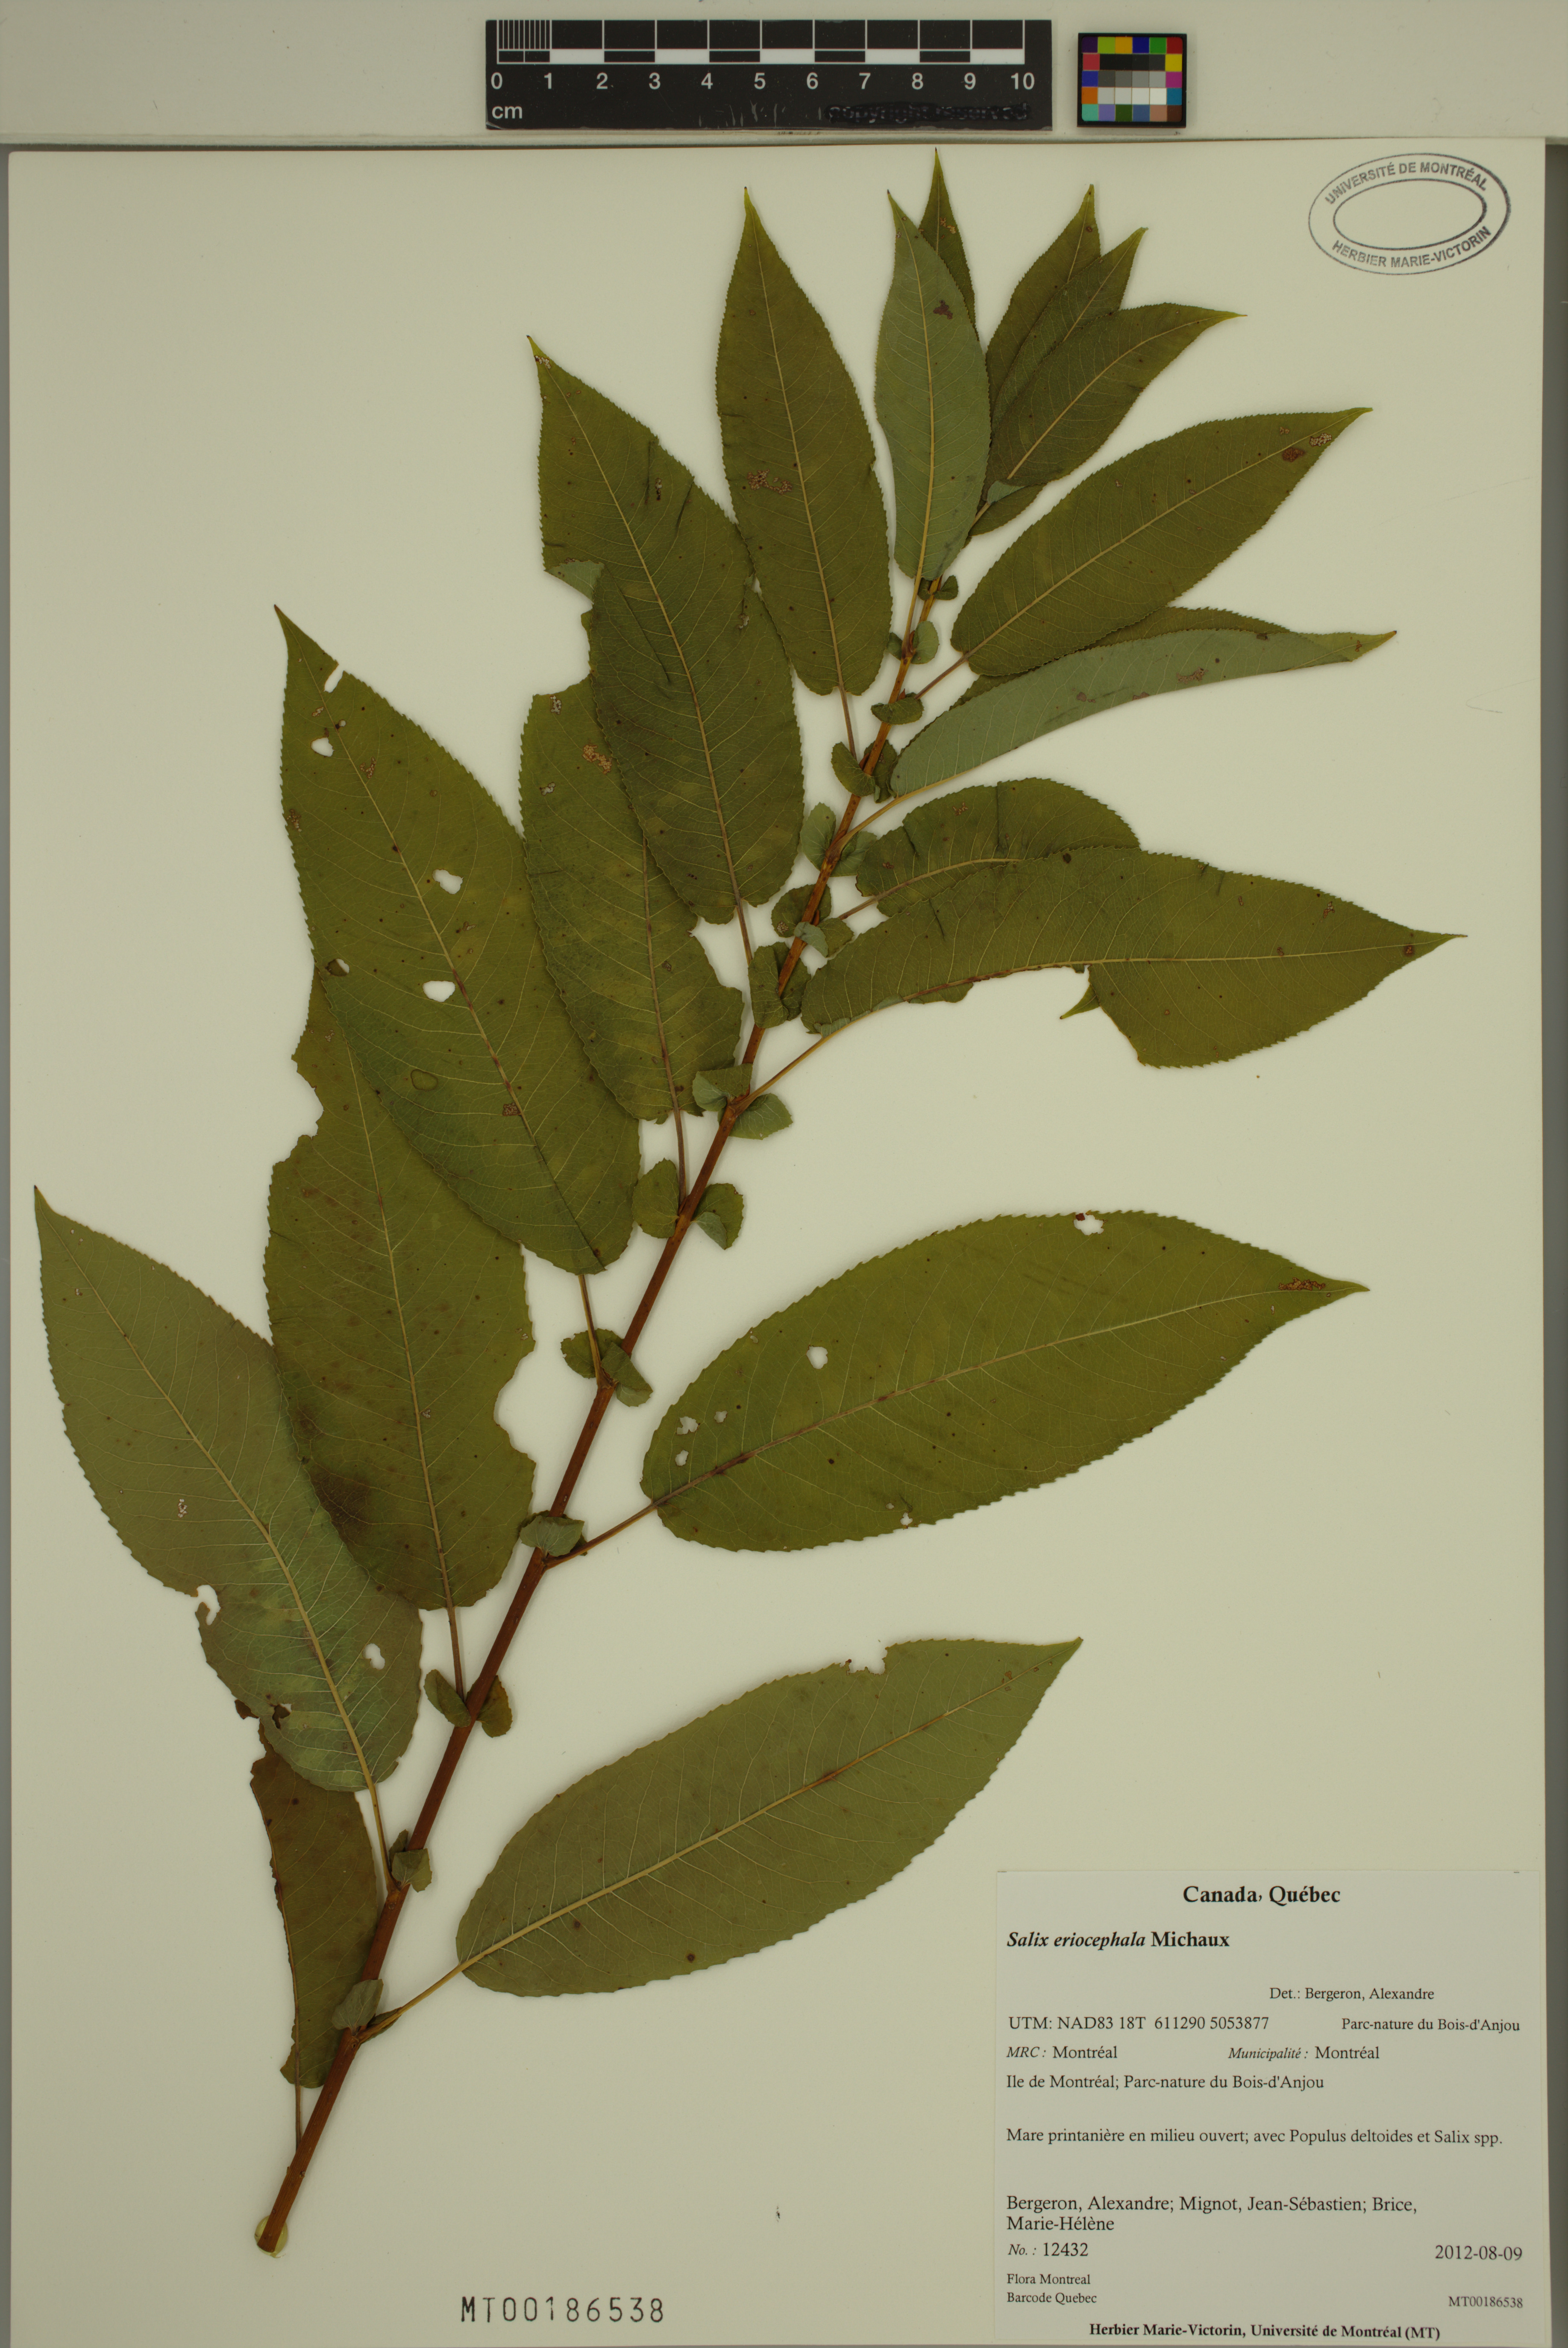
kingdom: Plantae
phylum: Tracheophyta
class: Magnoliopsida
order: Malpighiales
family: Salicaceae
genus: Salix
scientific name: Salix eriocephala
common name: Heart-leaved willow
